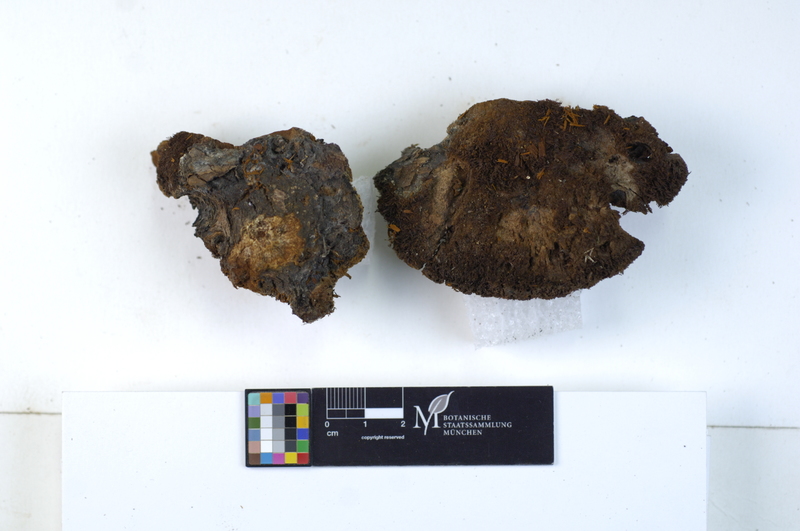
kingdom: Fungi
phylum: Basidiomycota
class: Agaricomycetes
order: Hymenochaetales
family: Hymenochaetaceae
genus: Inonotus
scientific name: Inonotus hispidus
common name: Shaggy bracket
